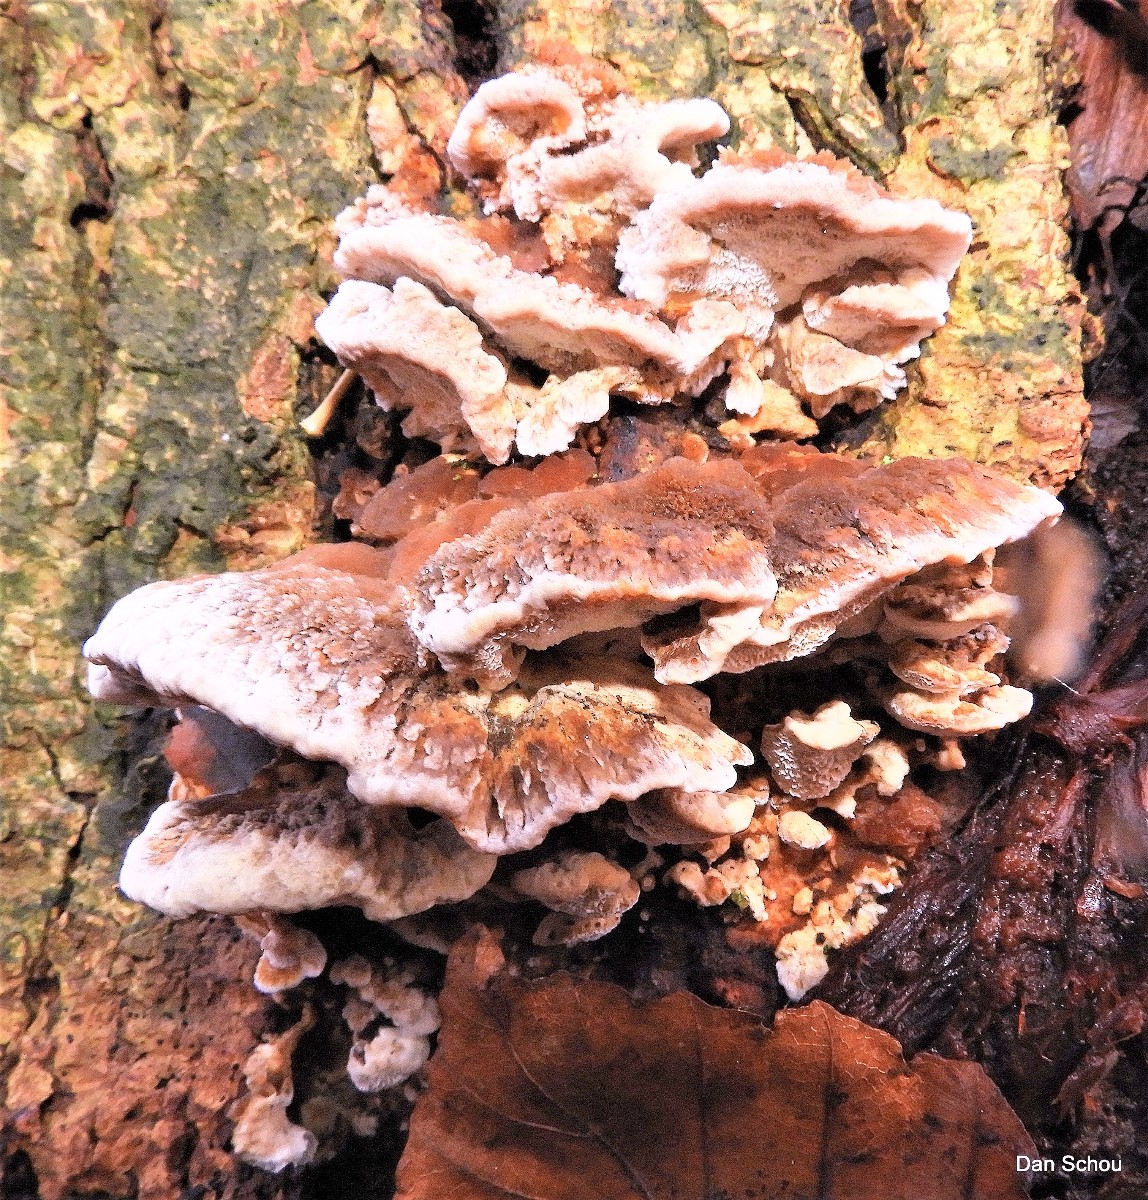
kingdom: Fungi
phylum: Basidiomycota
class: Agaricomycetes
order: Polyporales
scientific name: Polyporales
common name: poresvampordenen
